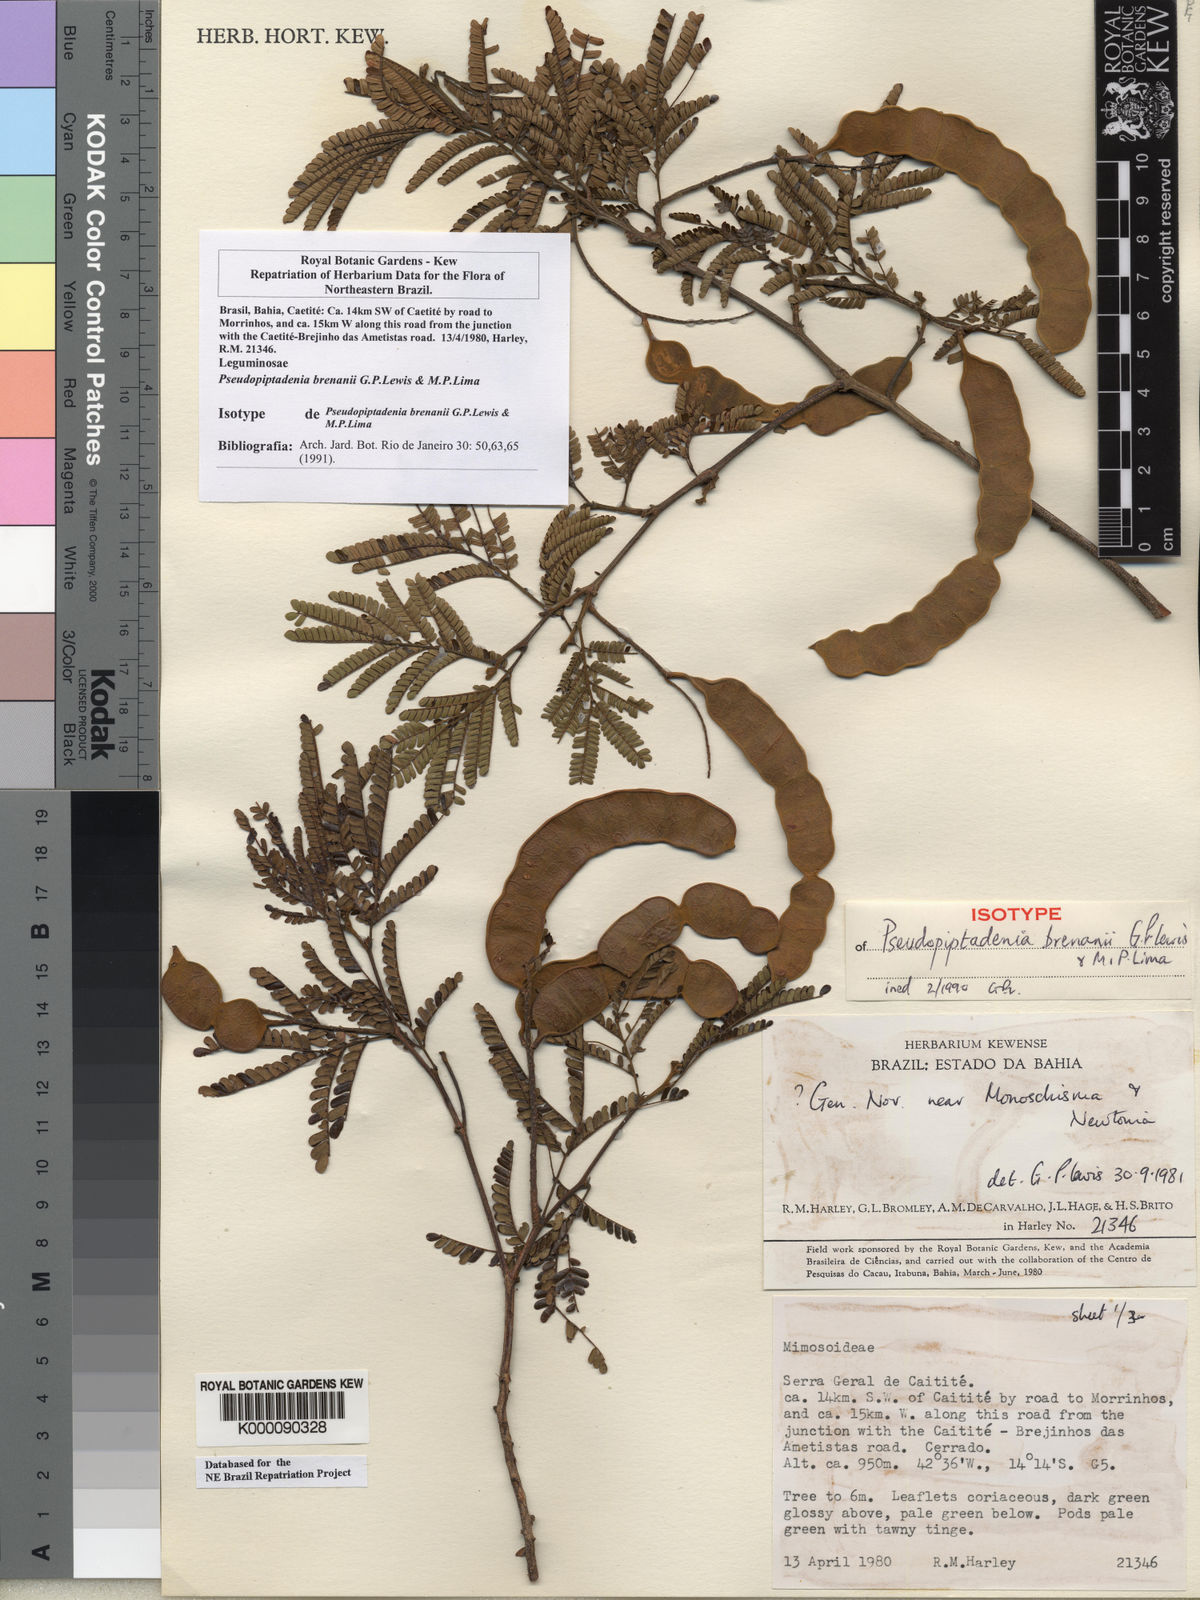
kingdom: Plantae
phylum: Tracheophyta
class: Magnoliopsida
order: Fabales
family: Fabaceae
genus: Pseudopiptadenia
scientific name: Pseudopiptadenia brenanii
